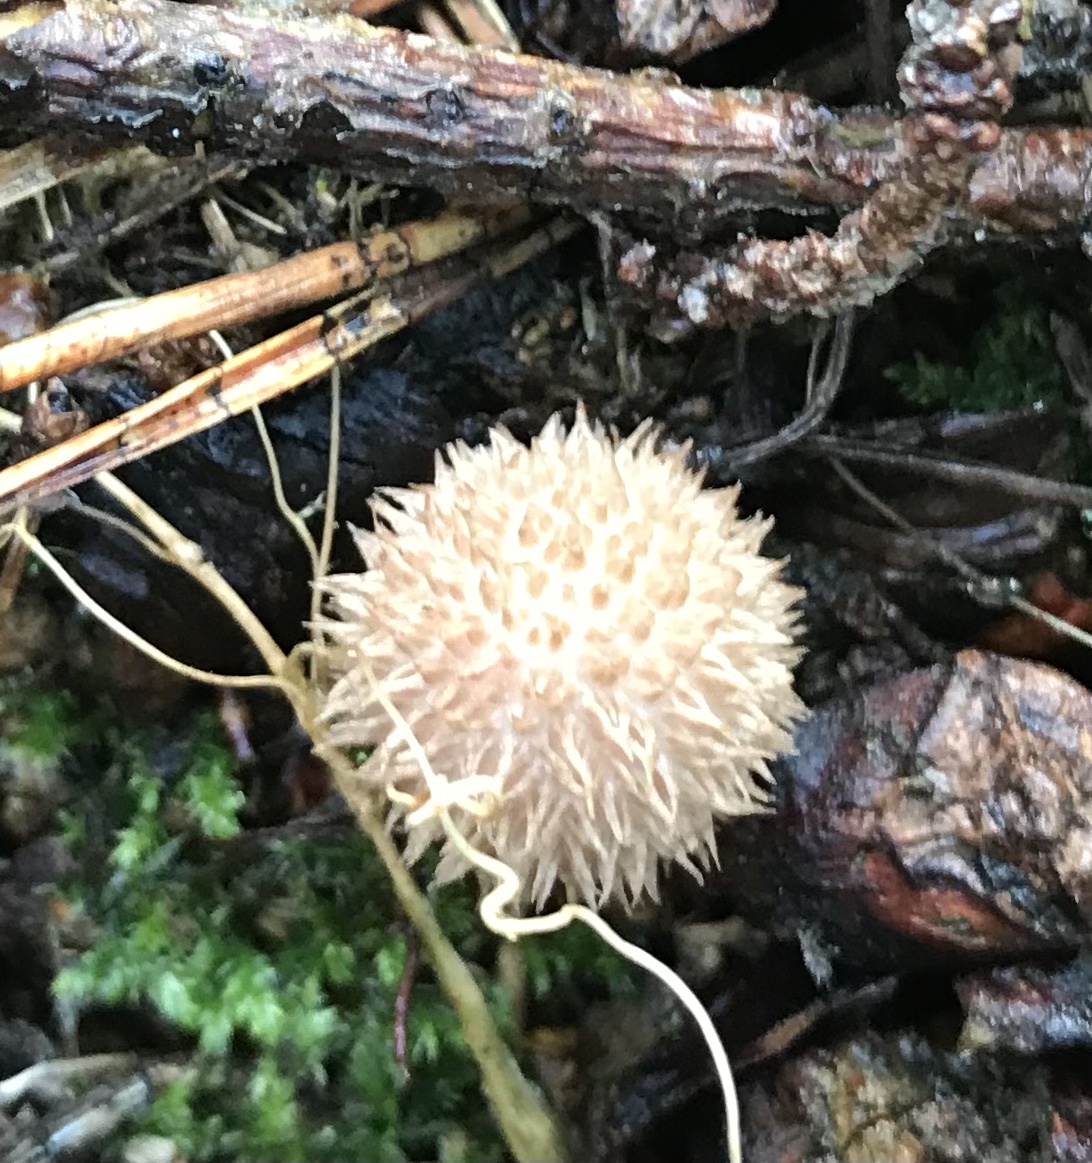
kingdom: Fungi
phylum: Basidiomycota
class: Agaricomycetes
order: Agaricales
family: Agaricaceae
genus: Lycoperdon
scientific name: Lycoperdon
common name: støvbold
